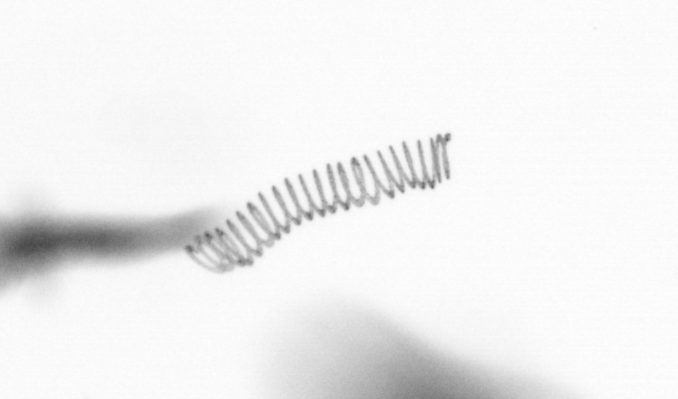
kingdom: Chromista
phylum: Ochrophyta
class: Bacillariophyceae
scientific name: Bacillariophyceae
